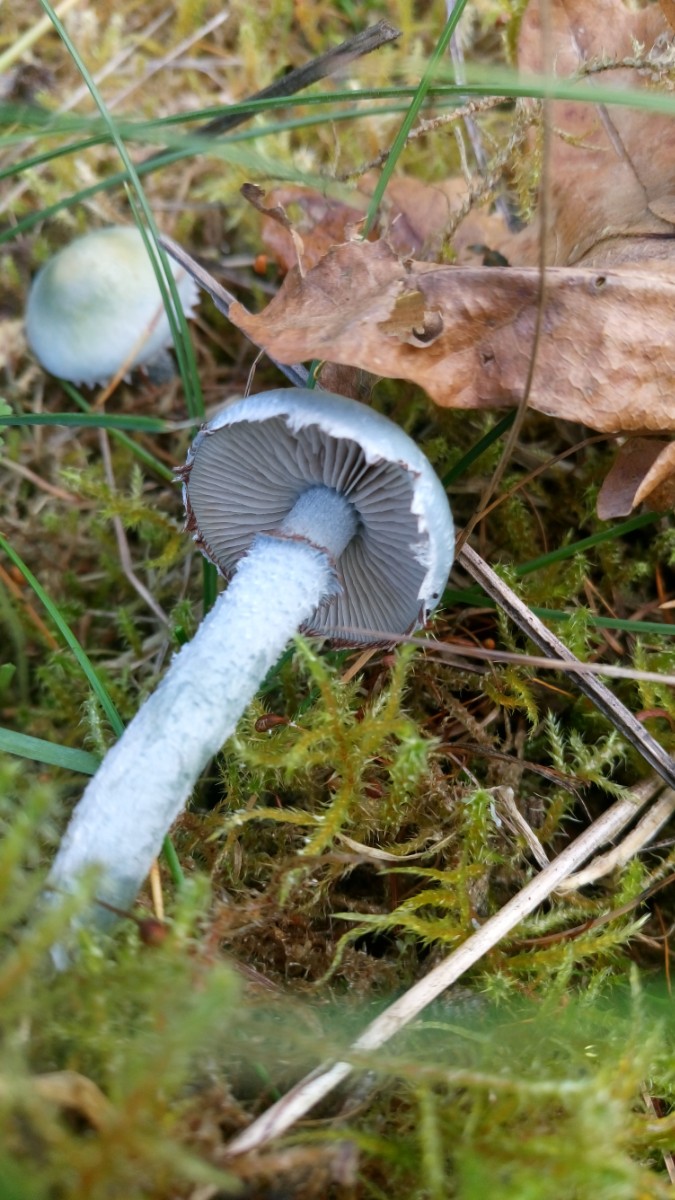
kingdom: Fungi
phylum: Basidiomycota
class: Agaricomycetes
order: Agaricales
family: Strophariaceae
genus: Stropharia
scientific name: Stropharia cyanea
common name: blågrøn bredblad
